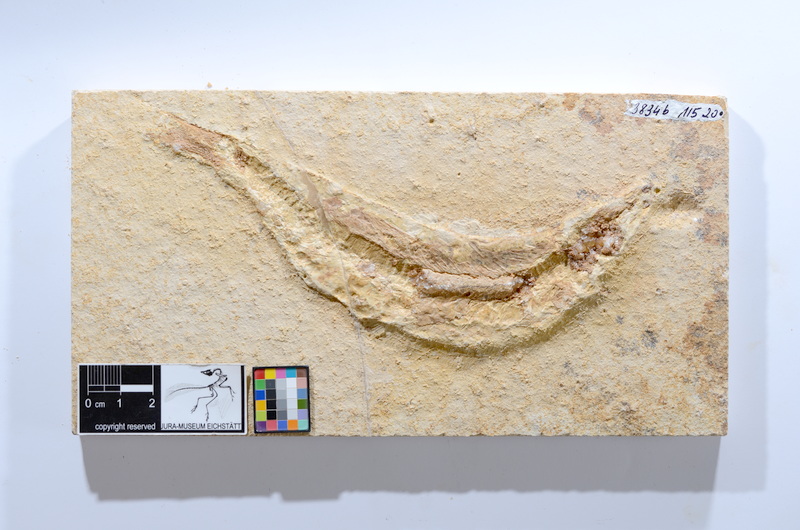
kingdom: Animalia
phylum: Chordata
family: Ascalaboidae
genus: Tharsis
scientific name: Tharsis dubius
